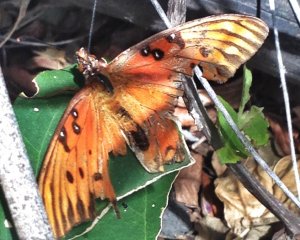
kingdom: Animalia
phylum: Arthropoda
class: Insecta
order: Lepidoptera
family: Nymphalidae
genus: Dione
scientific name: Dione vanillae
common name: Gulf Fritillary
